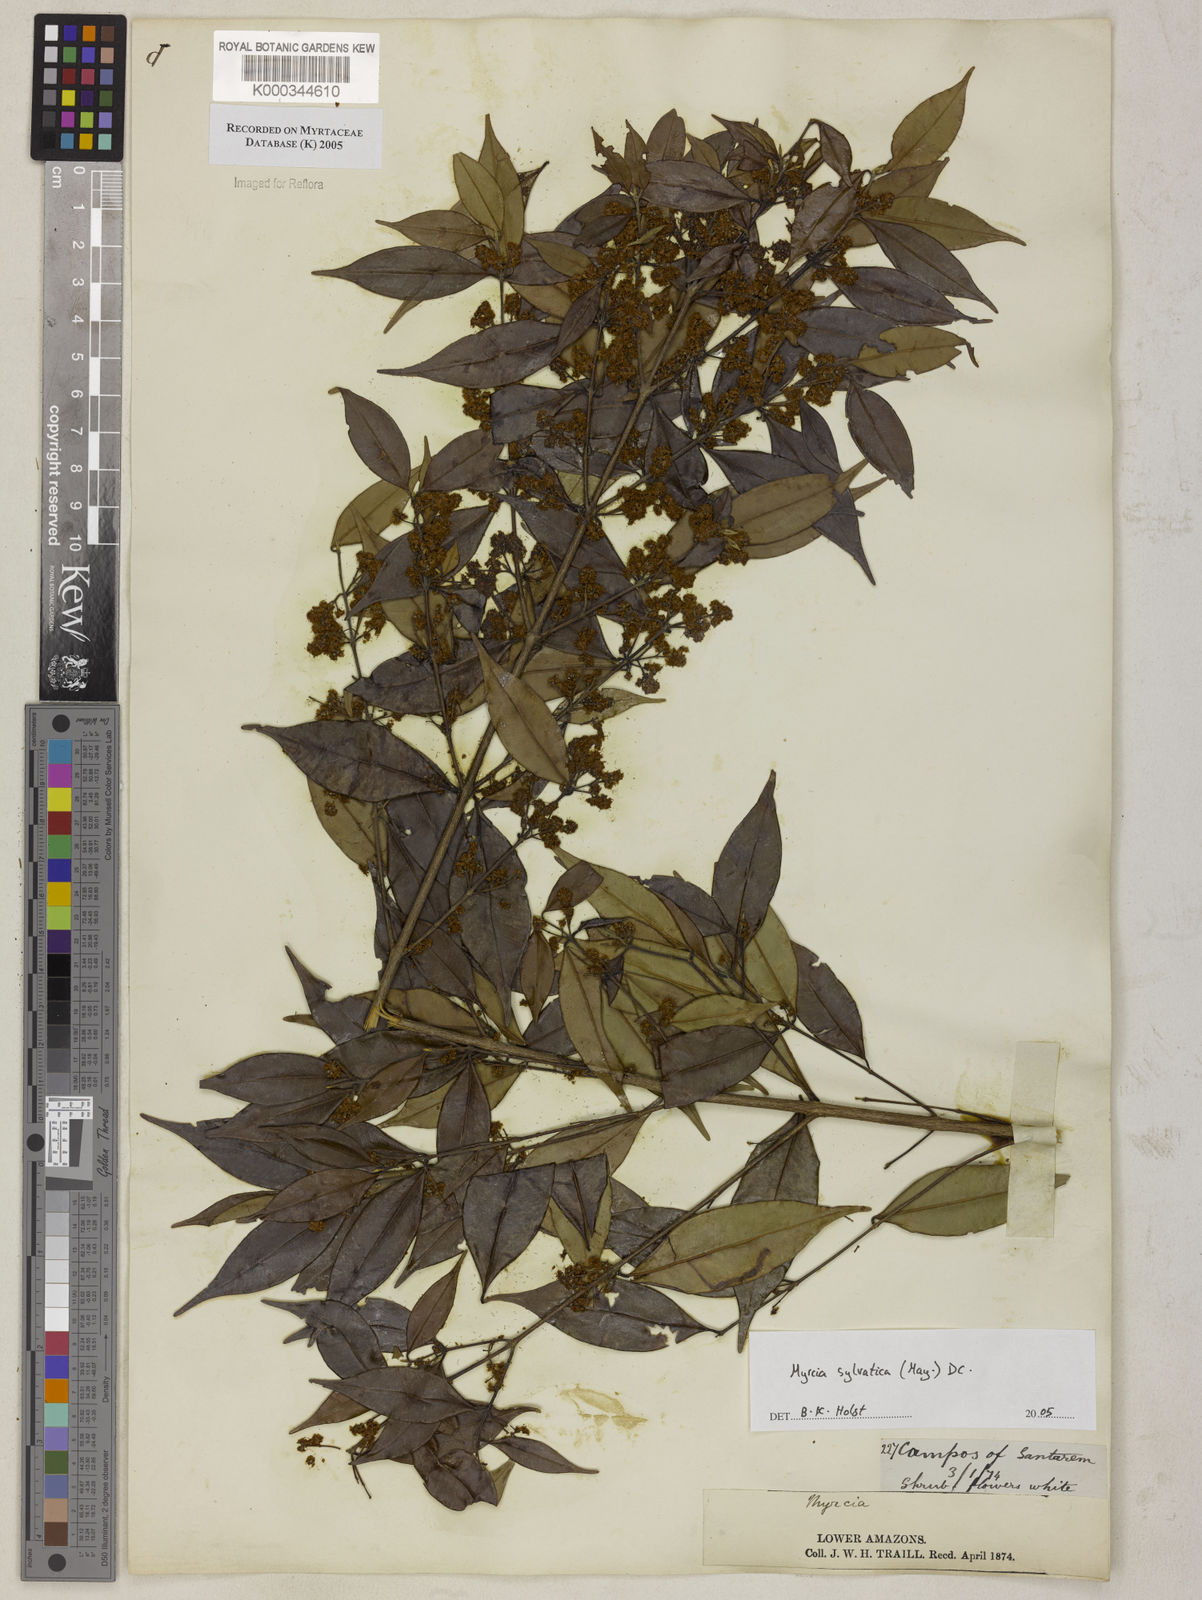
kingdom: Plantae
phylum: Tracheophyta
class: Magnoliopsida
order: Myrtales
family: Myrtaceae
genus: Myrcia
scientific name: Myrcia sylvatica
